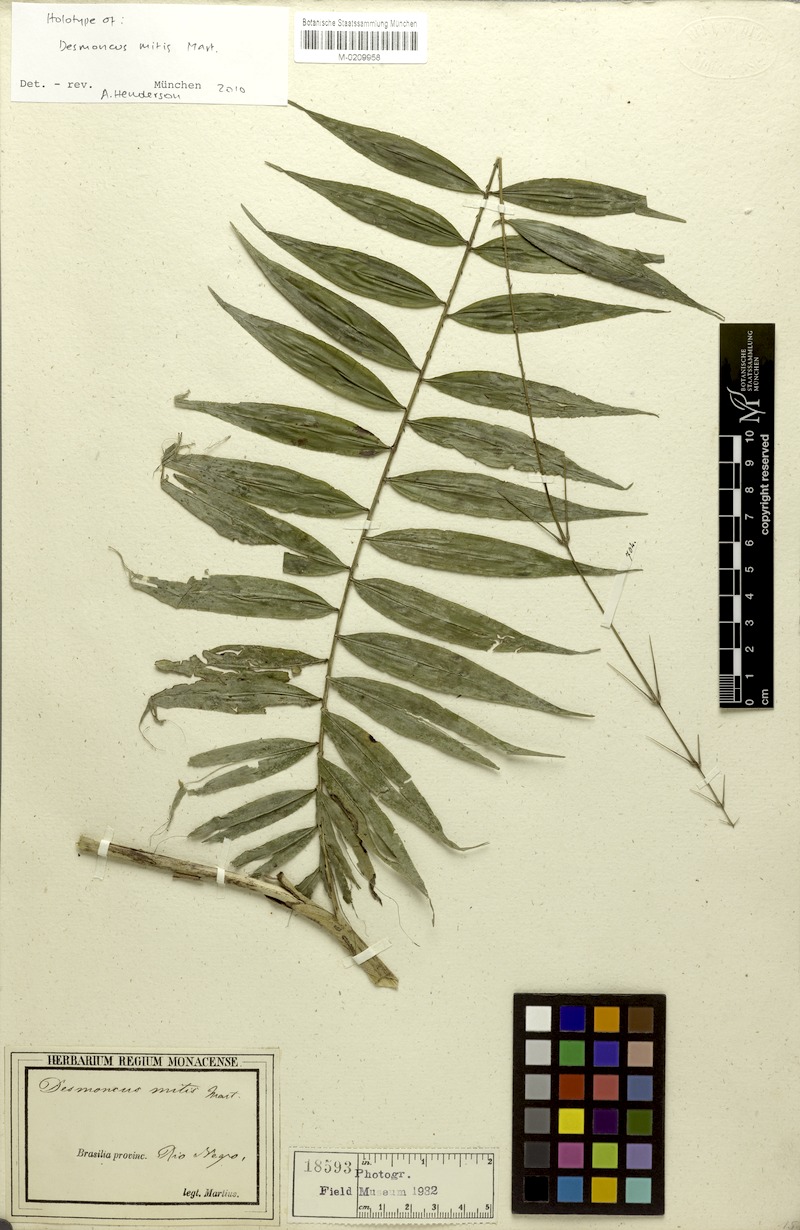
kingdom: Plantae
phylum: Tracheophyta
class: Liliopsida
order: Arecales
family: Arecaceae
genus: Desmoncus
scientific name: Desmoncus mitis
